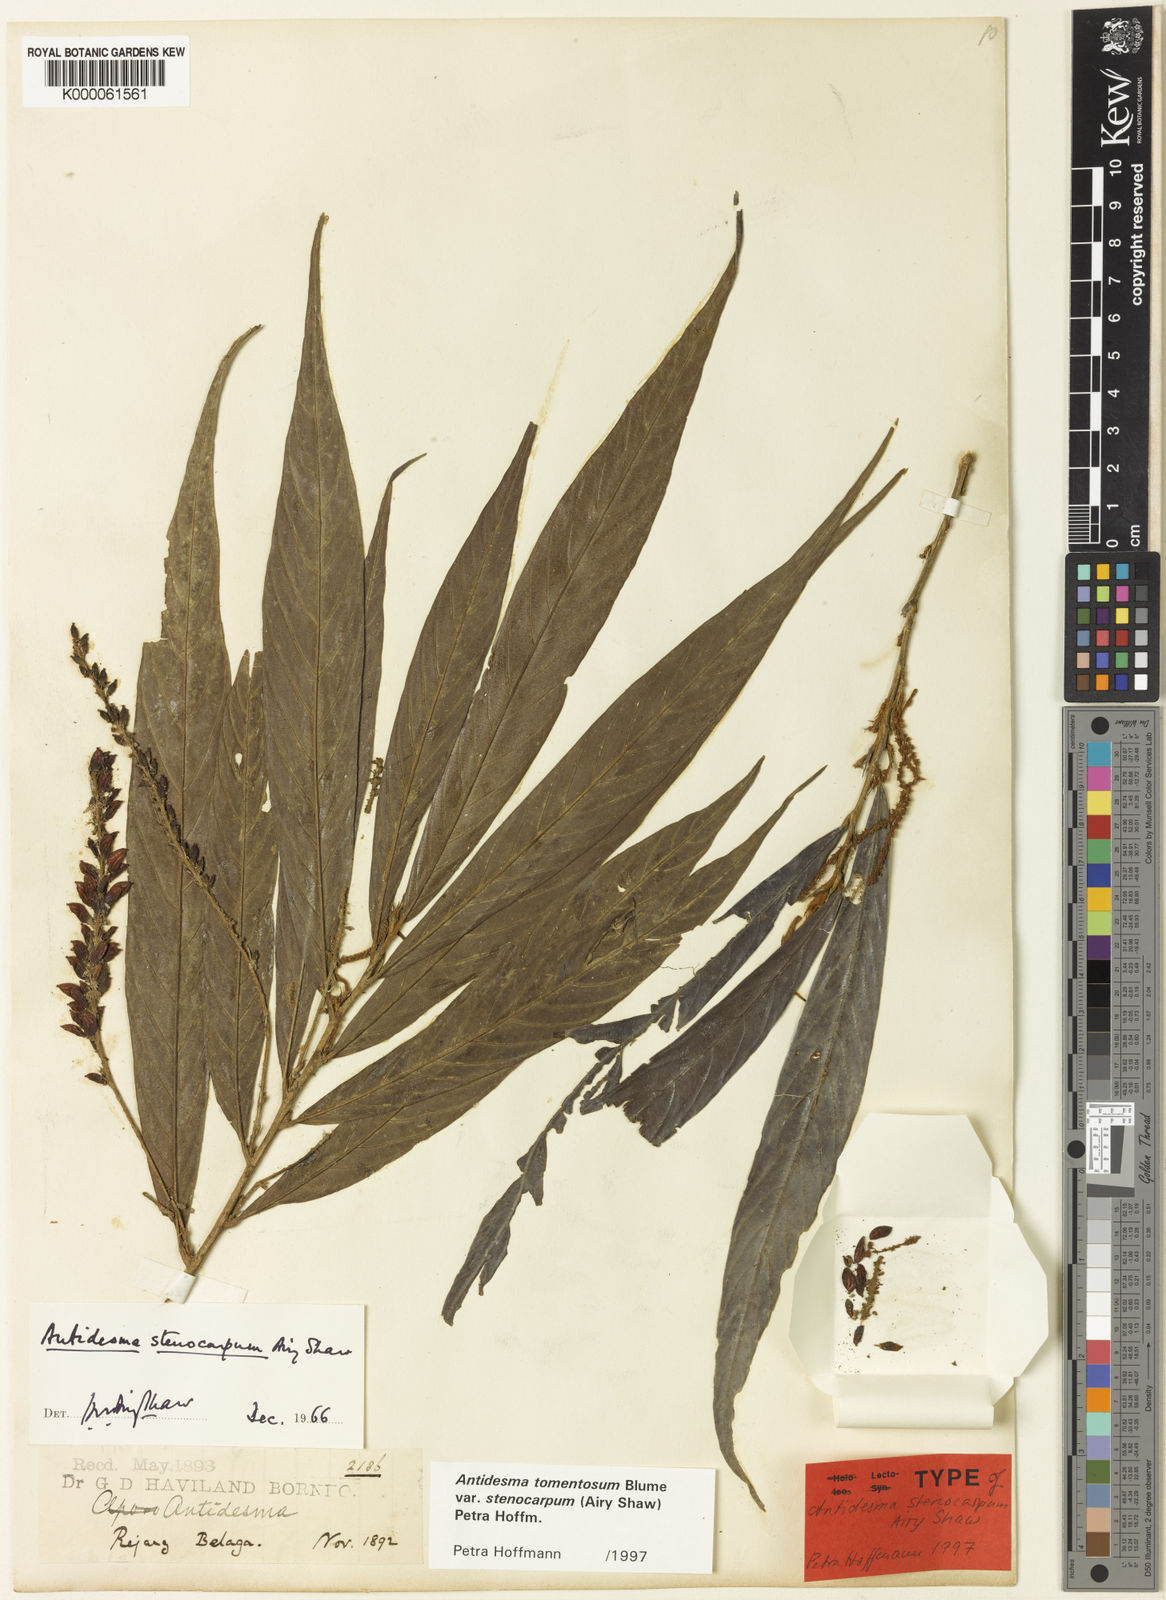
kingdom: Plantae
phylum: Tracheophyta
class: Magnoliopsida
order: Malpighiales
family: Phyllanthaceae
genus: Antidesma
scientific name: Antidesma tomentosum
